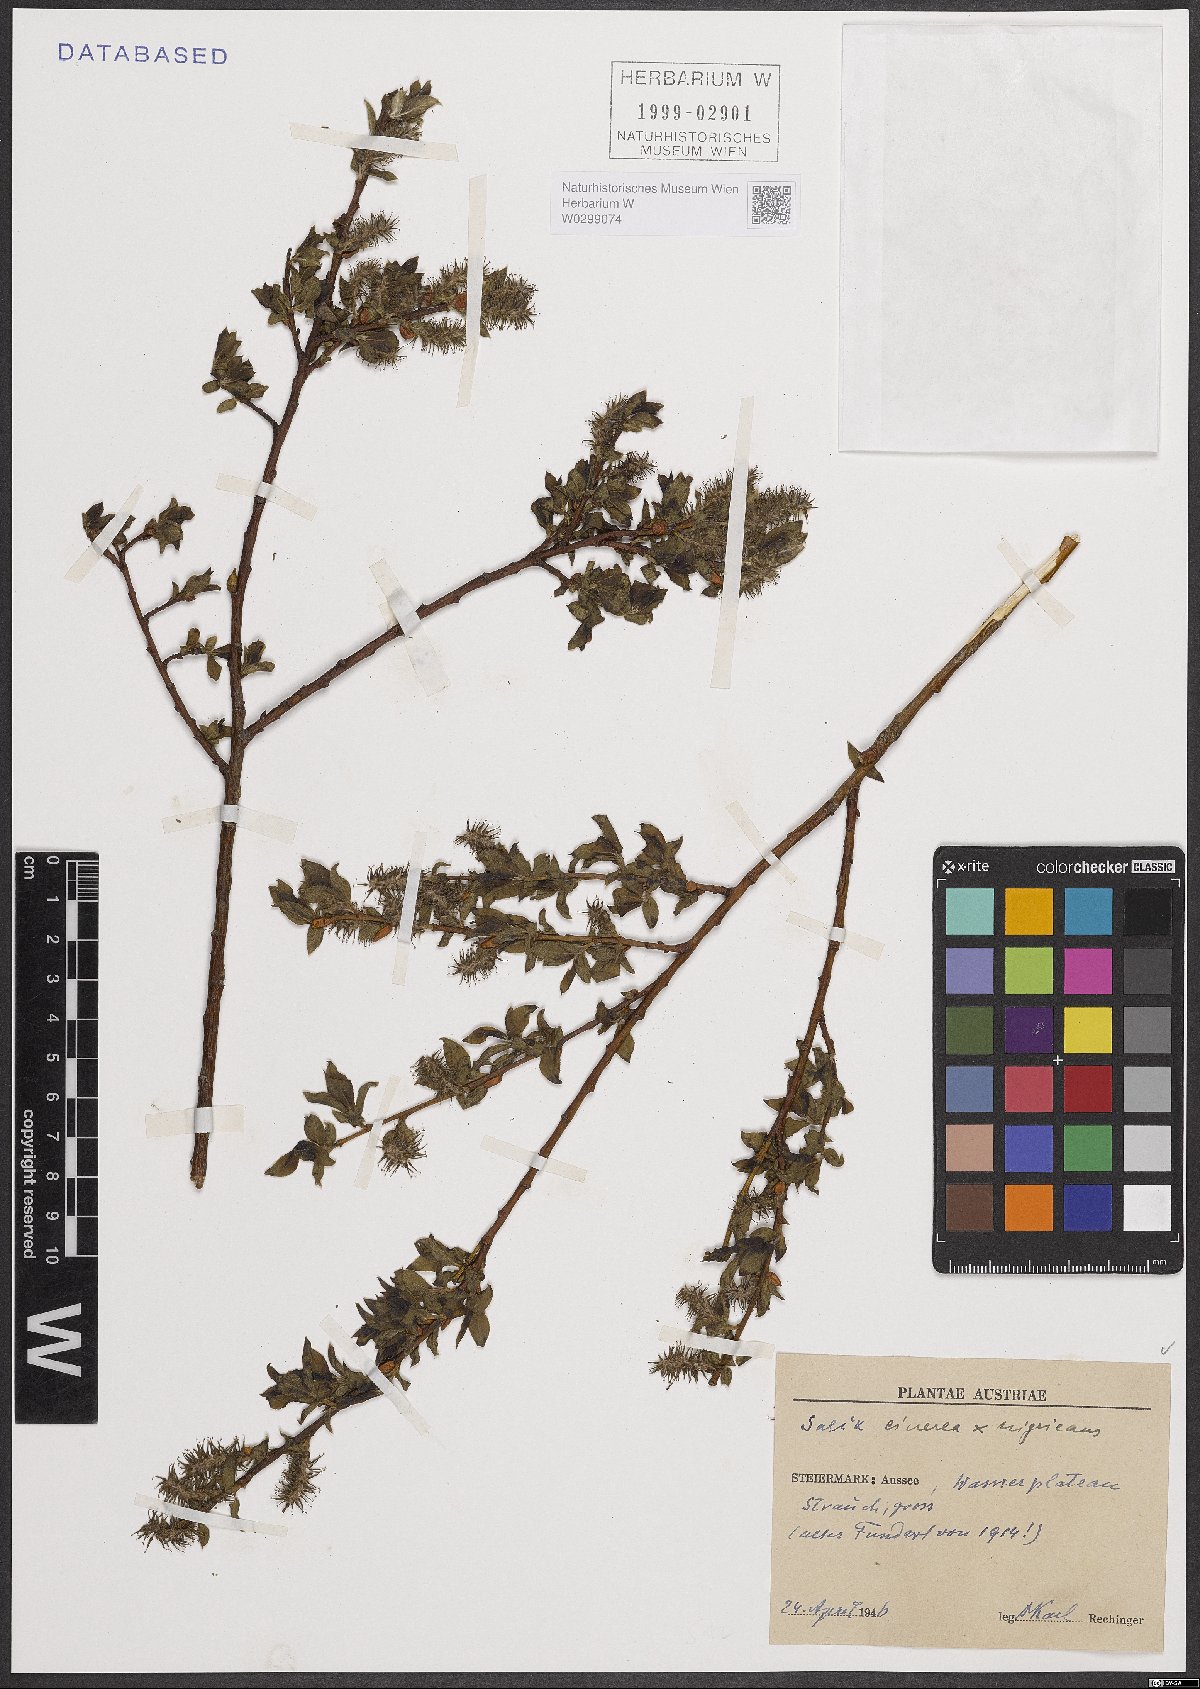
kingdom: Plantae
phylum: Tracheophyta
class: Magnoliopsida
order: Malpighiales
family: Salicaceae
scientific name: Salicaceae
